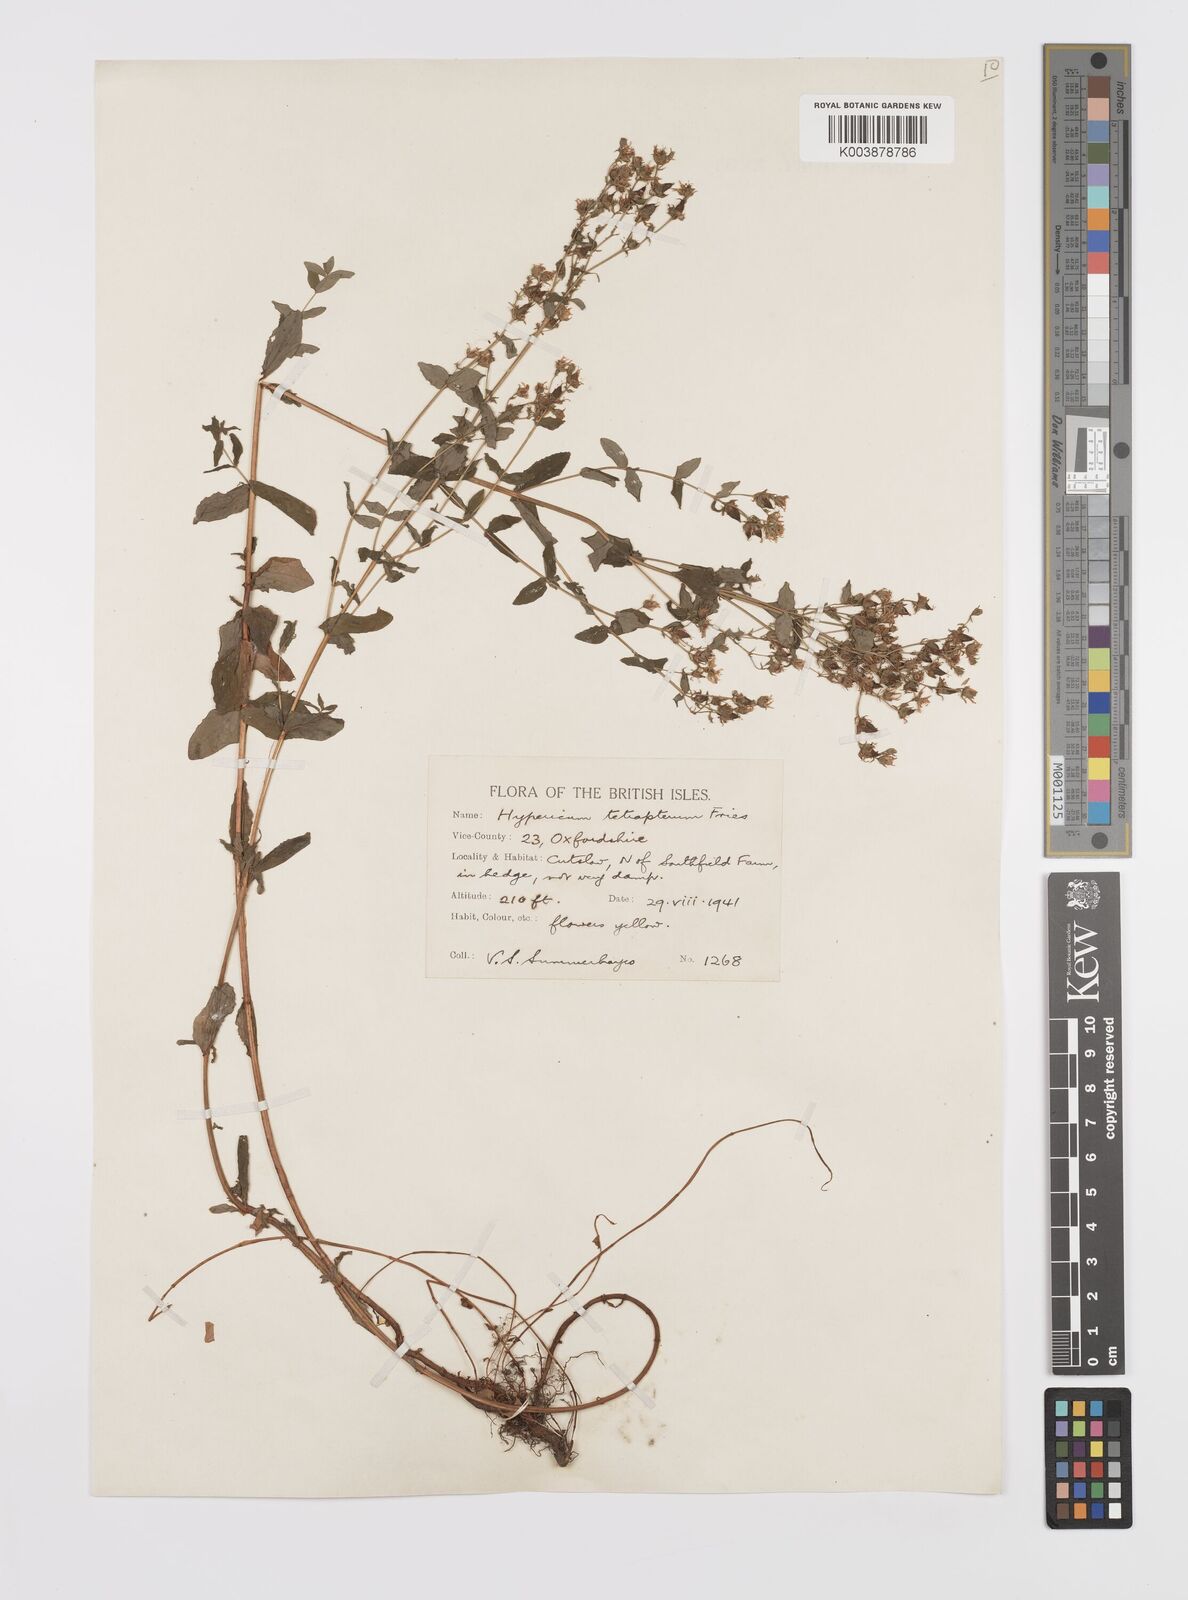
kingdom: Plantae
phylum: Tracheophyta
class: Magnoliopsida
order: Malpighiales
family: Hypericaceae
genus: Hypericum
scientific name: Hypericum tetrapterum
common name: Square-stalked st. john's-wort
